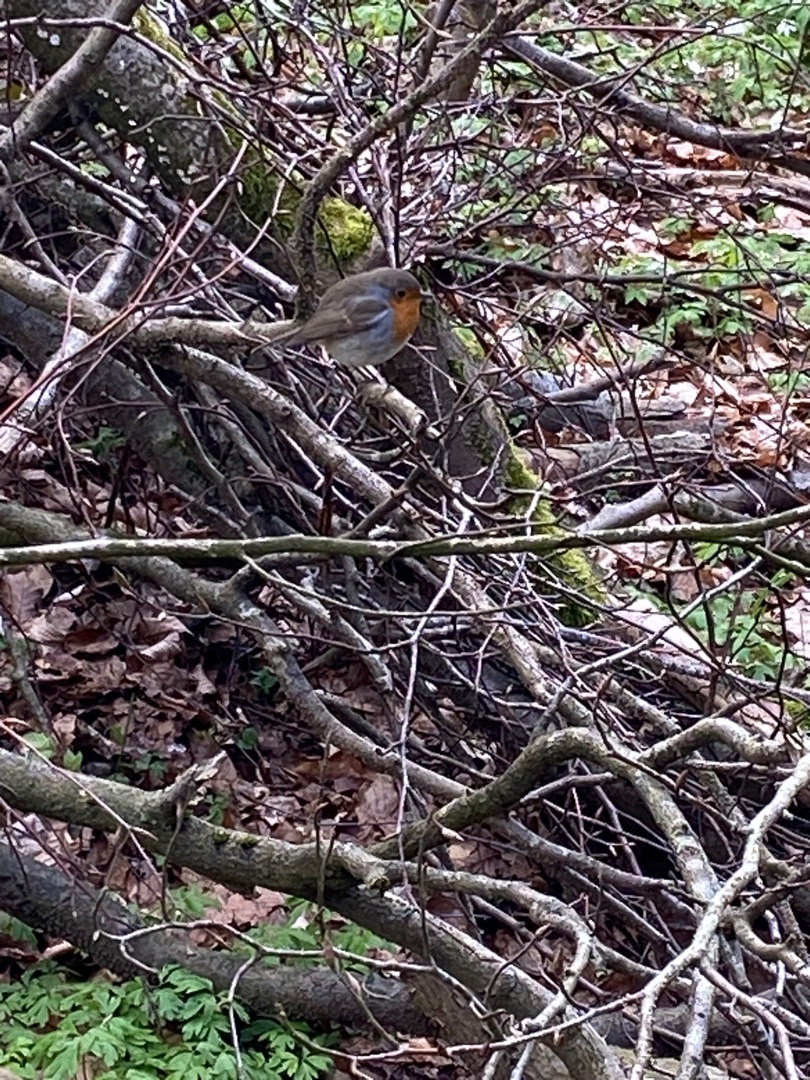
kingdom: Animalia
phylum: Chordata
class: Aves
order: Passeriformes
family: Muscicapidae
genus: Erithacus
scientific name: Erithacus rubecula
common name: Rødhals/rødkælk
